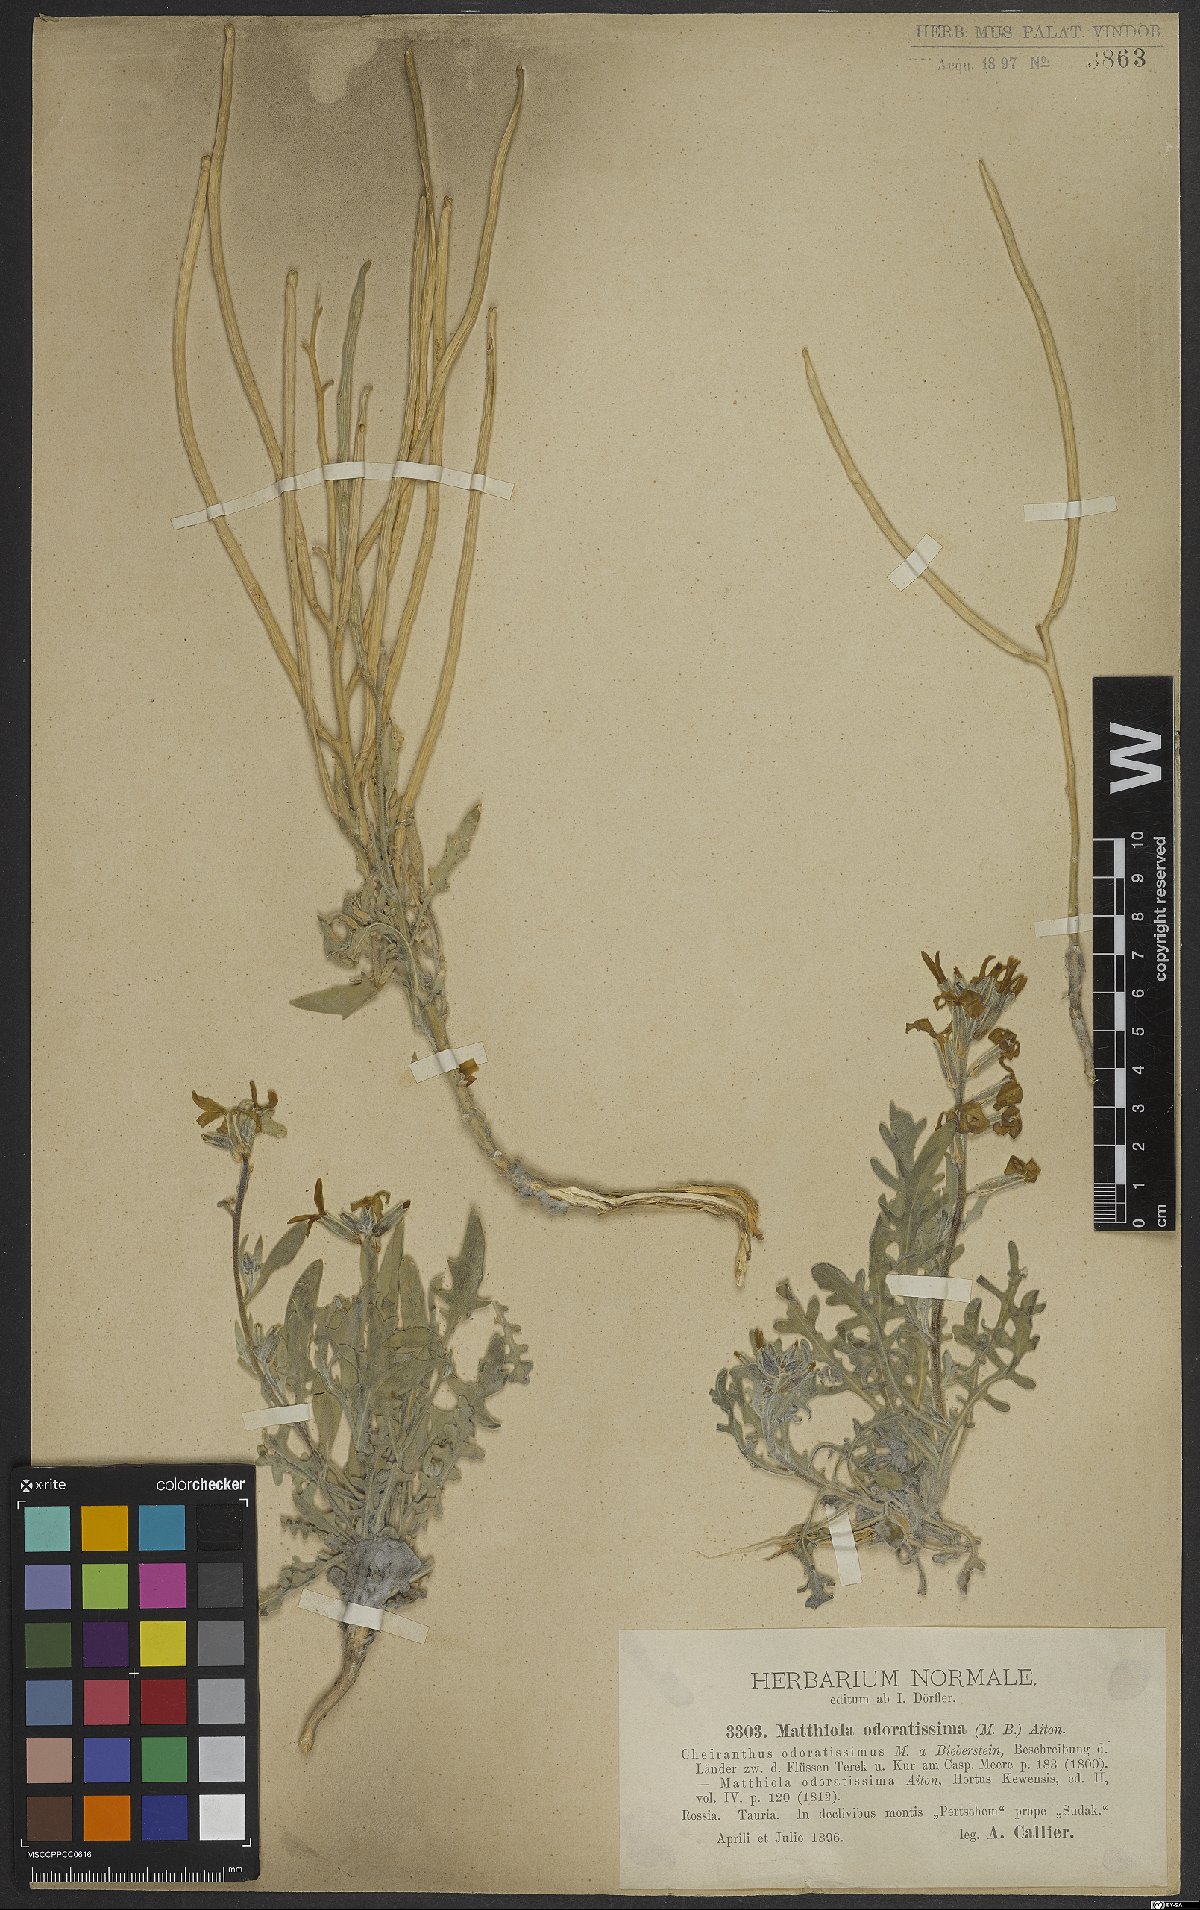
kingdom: Plantae
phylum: Tracheophyta
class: Magnoliopsida
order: Brassicales
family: Brassicaceae
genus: Matthiola
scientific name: Matthiola odoratissima
